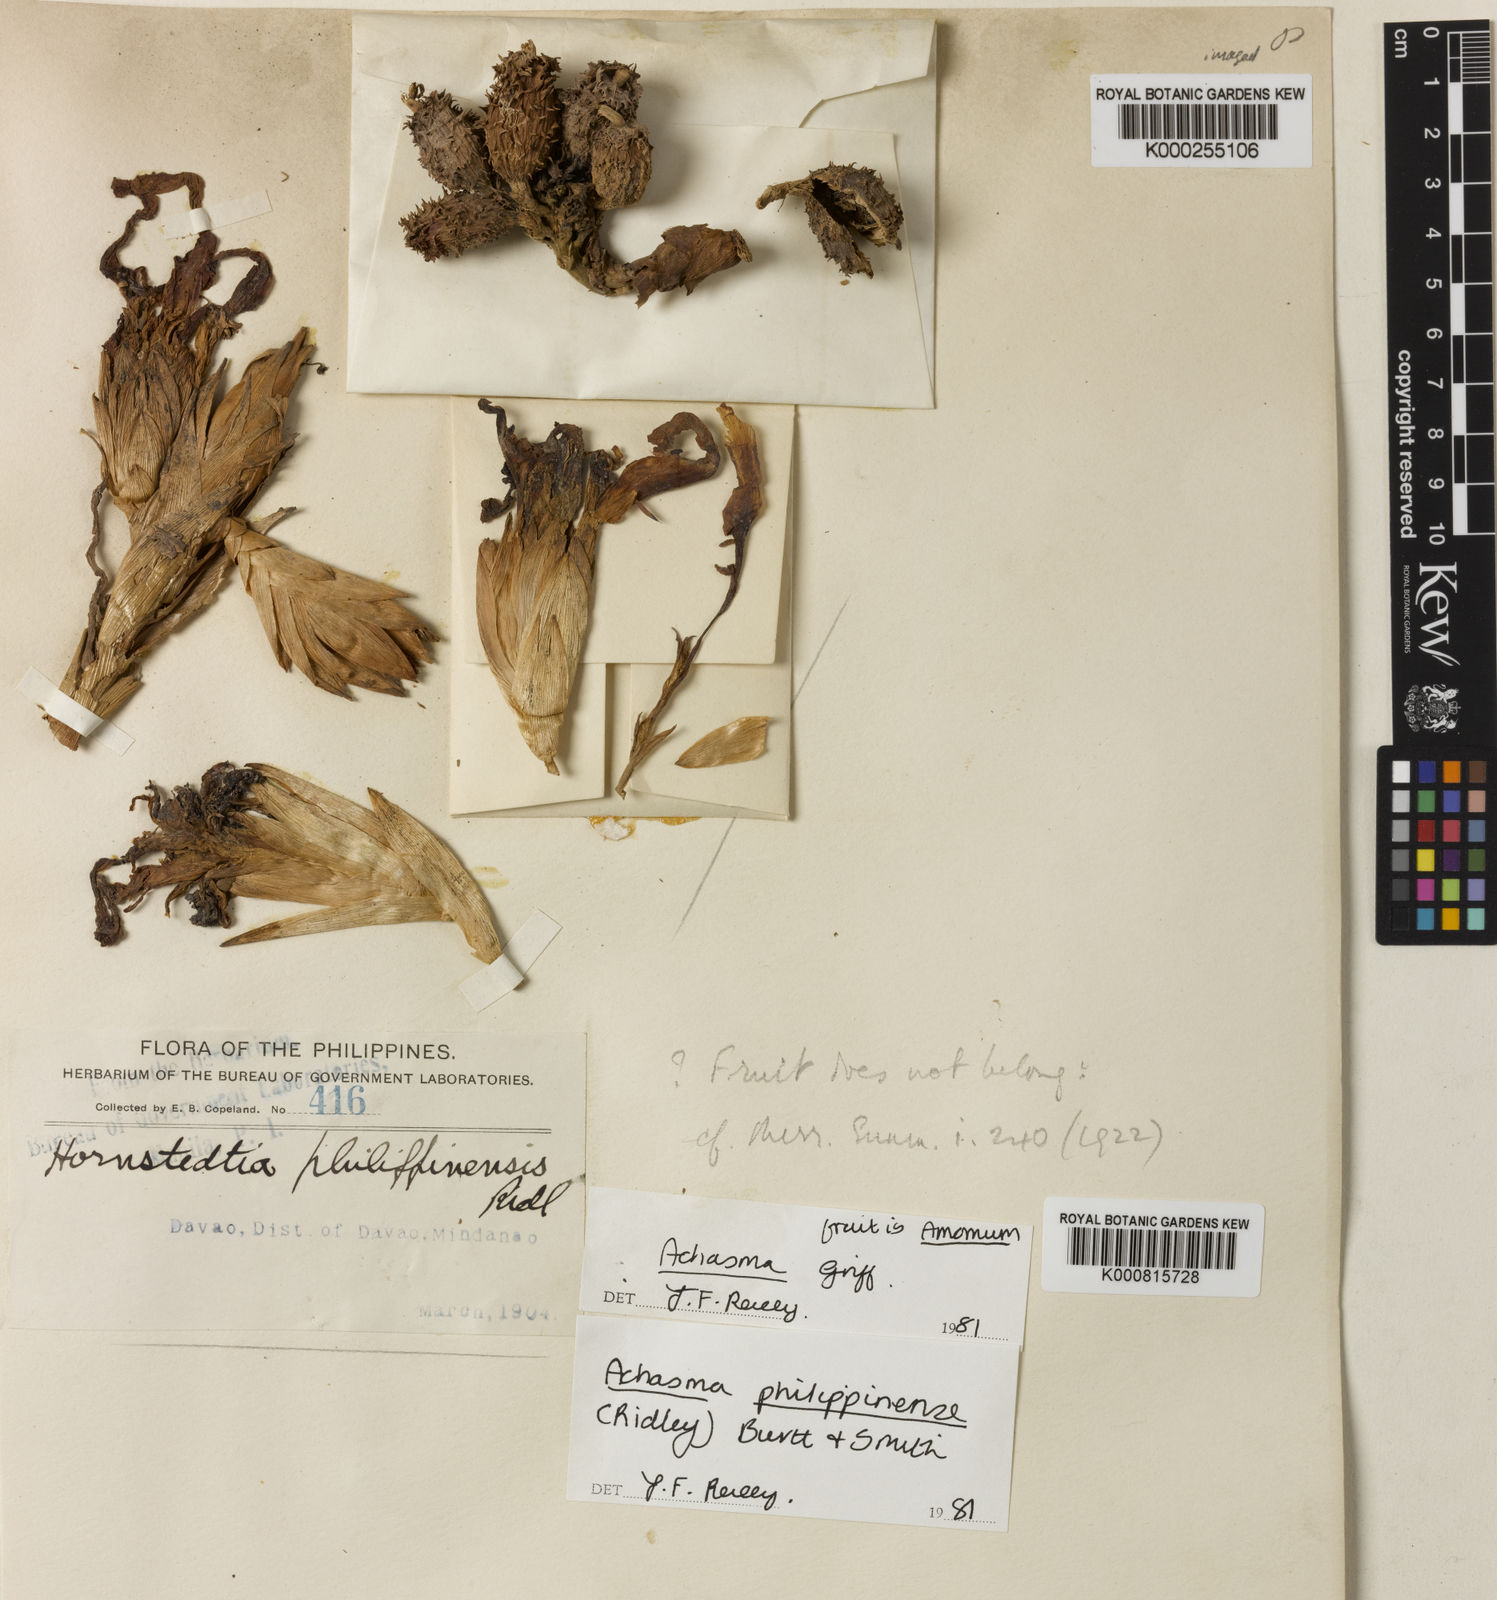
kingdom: Plantae
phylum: Tracheophyta
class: Liliopsida
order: Zingiberales
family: Zingiberaceae
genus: Etlingera
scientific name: Etlingera philippinensis
